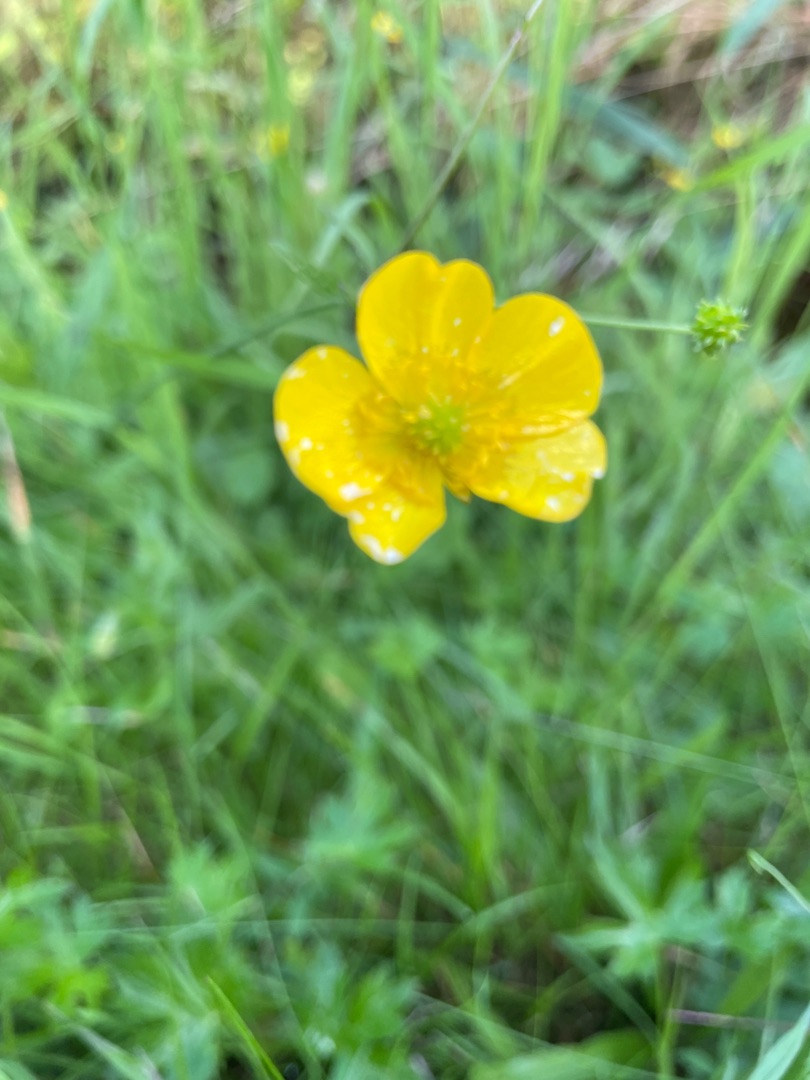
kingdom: Plantae
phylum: Tracheophyta
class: Magnoliopsida
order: Ranunculales
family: Ranunculaceae
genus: Ranunculus
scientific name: Ranunculus
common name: Ranunkelslægten
